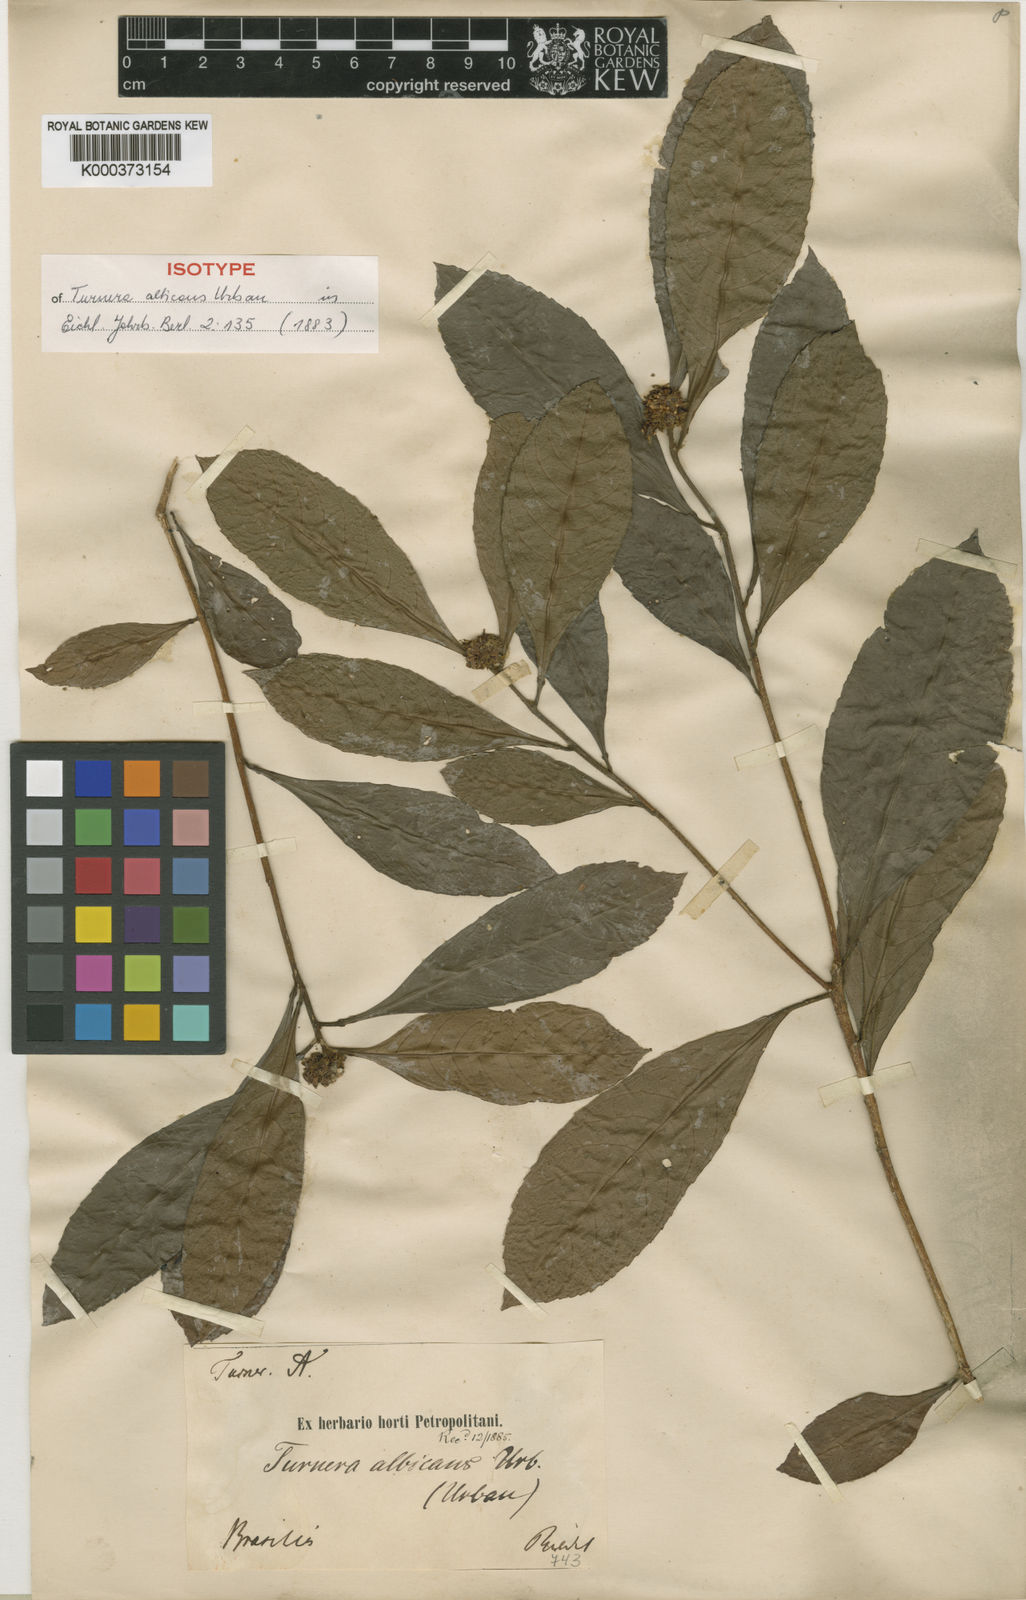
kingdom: Plantae
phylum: Tracheophyta
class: Magnoliopsida
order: Malpighiales
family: Turneraceae
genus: Oxossia
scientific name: Oxossia albicans
